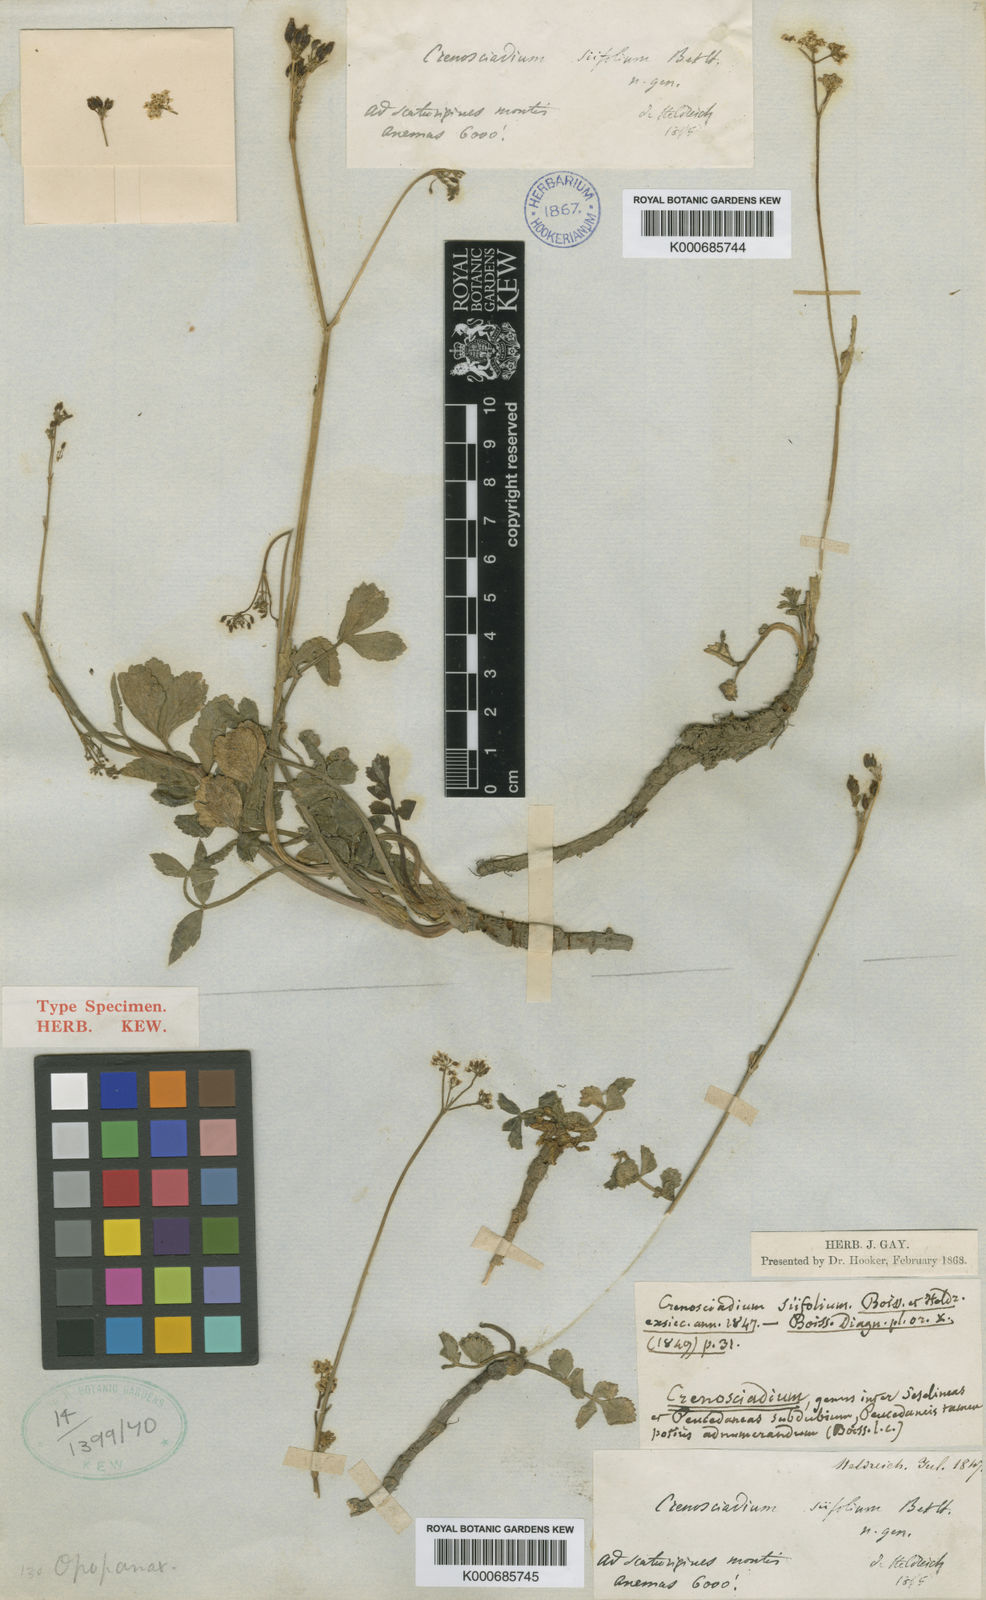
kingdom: Plantae
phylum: Tracheophyta
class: Magnoliopsida
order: Apiales
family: Apiaceae
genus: Opopanax
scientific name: Opopanax siifolius
